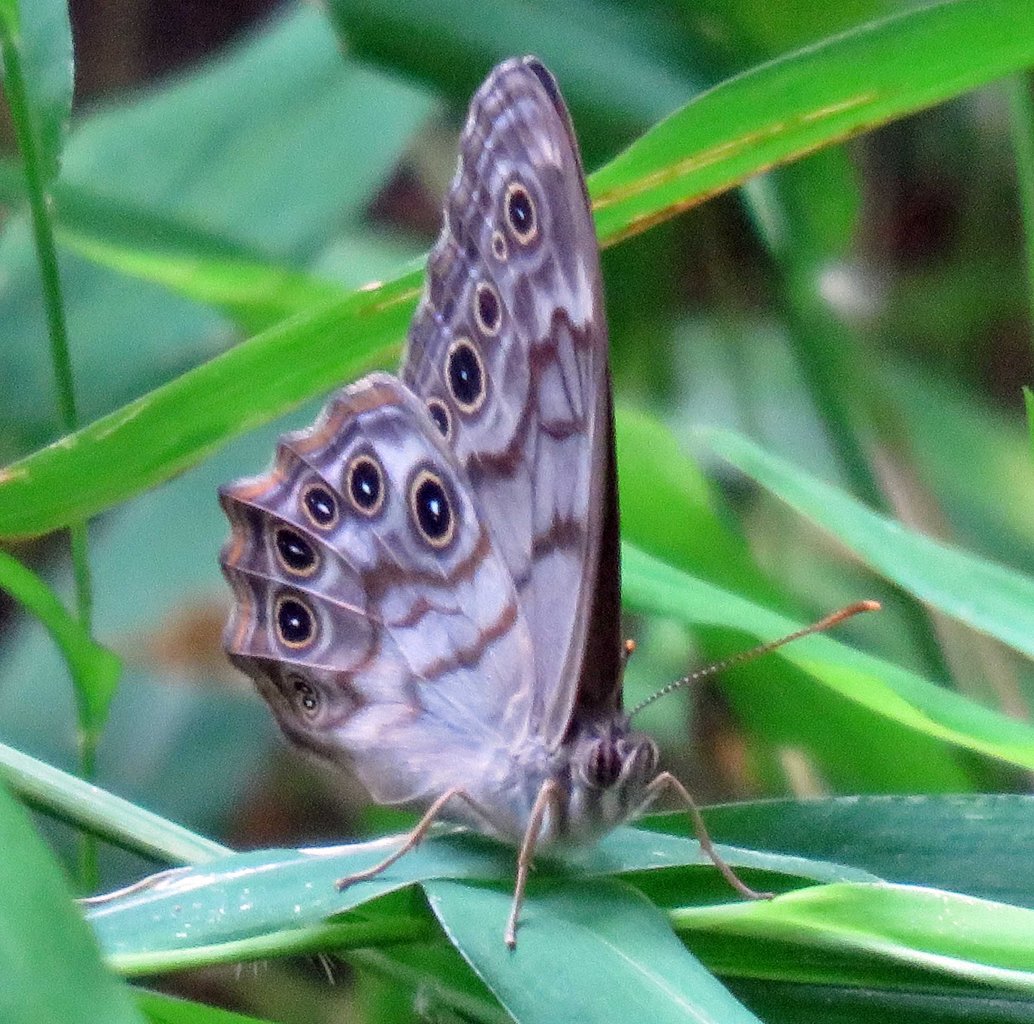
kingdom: Animalia
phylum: Arthropoda
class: Insecta
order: Lepidoptera
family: Nymphalidae
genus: Lethe
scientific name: Lethe creola
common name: Creole Pearly-Eye
